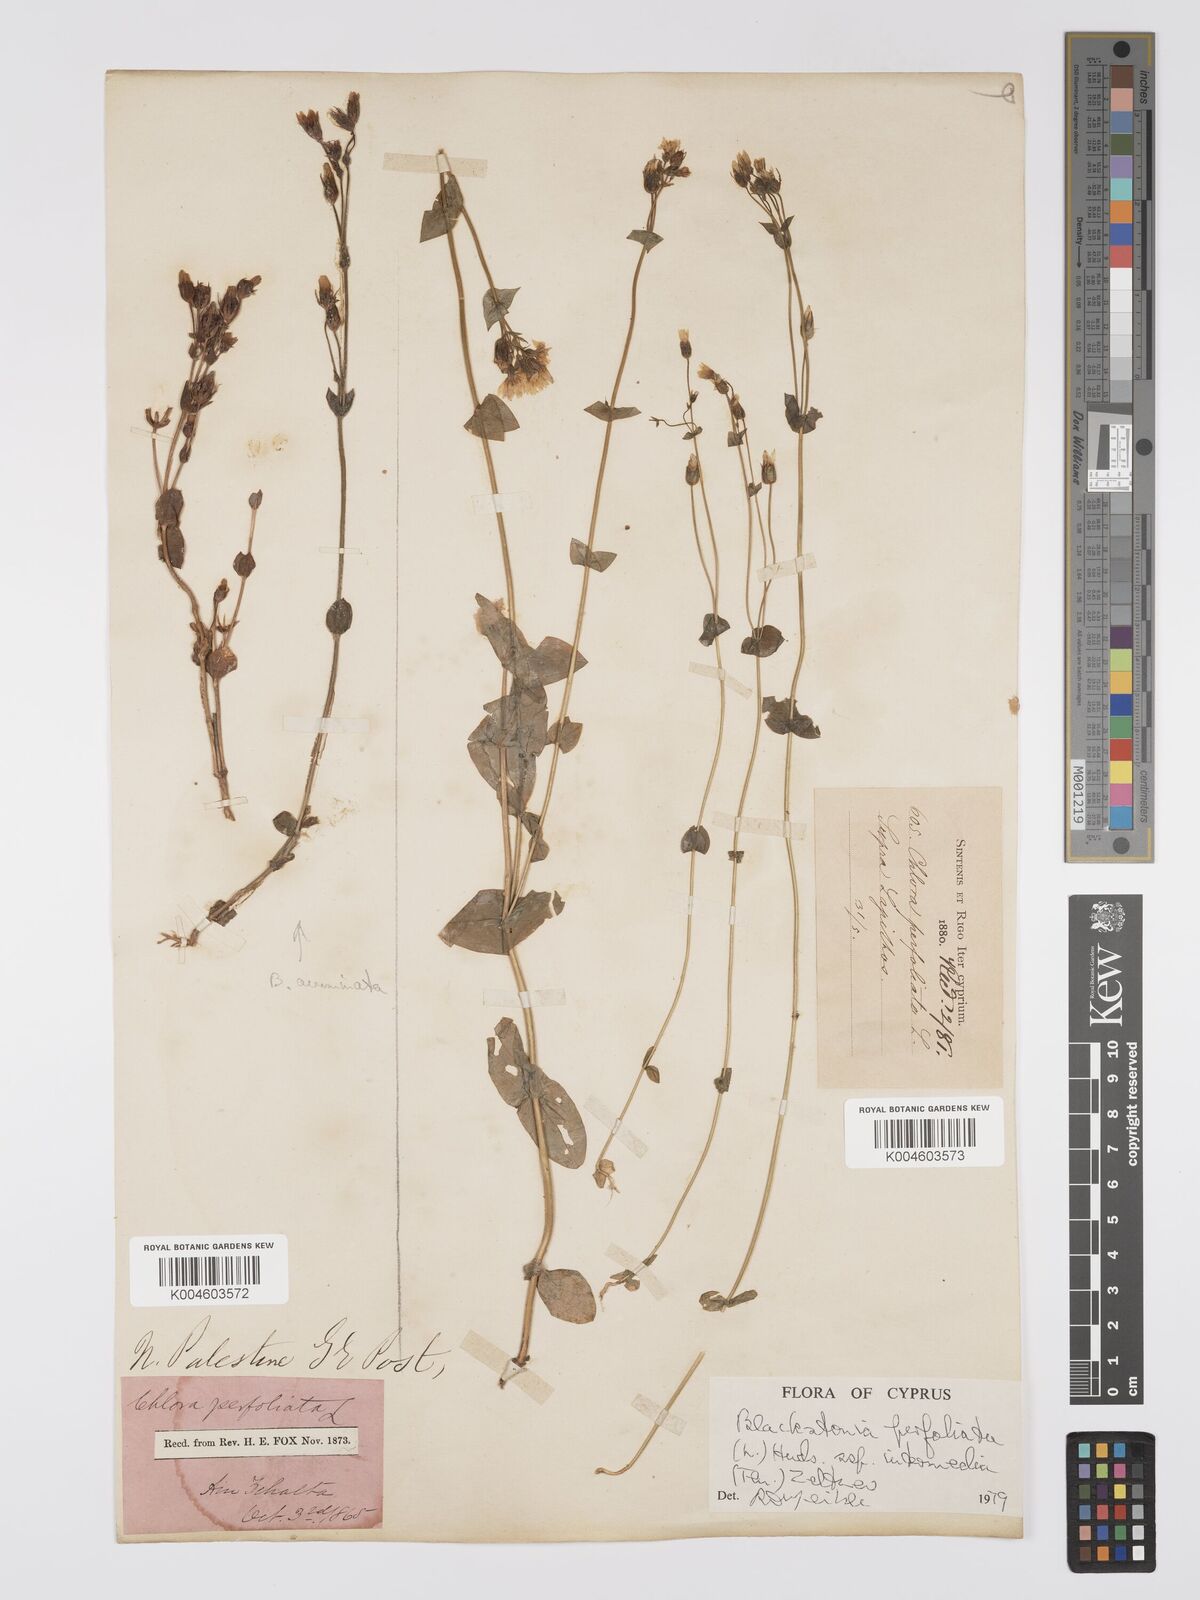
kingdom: Plantae
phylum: Tracheophyta
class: Magnoliopsida
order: Gentianales
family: Gentianaceae
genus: Blackstonia
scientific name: Blackstonia perfoliata
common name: Yellow-wort
